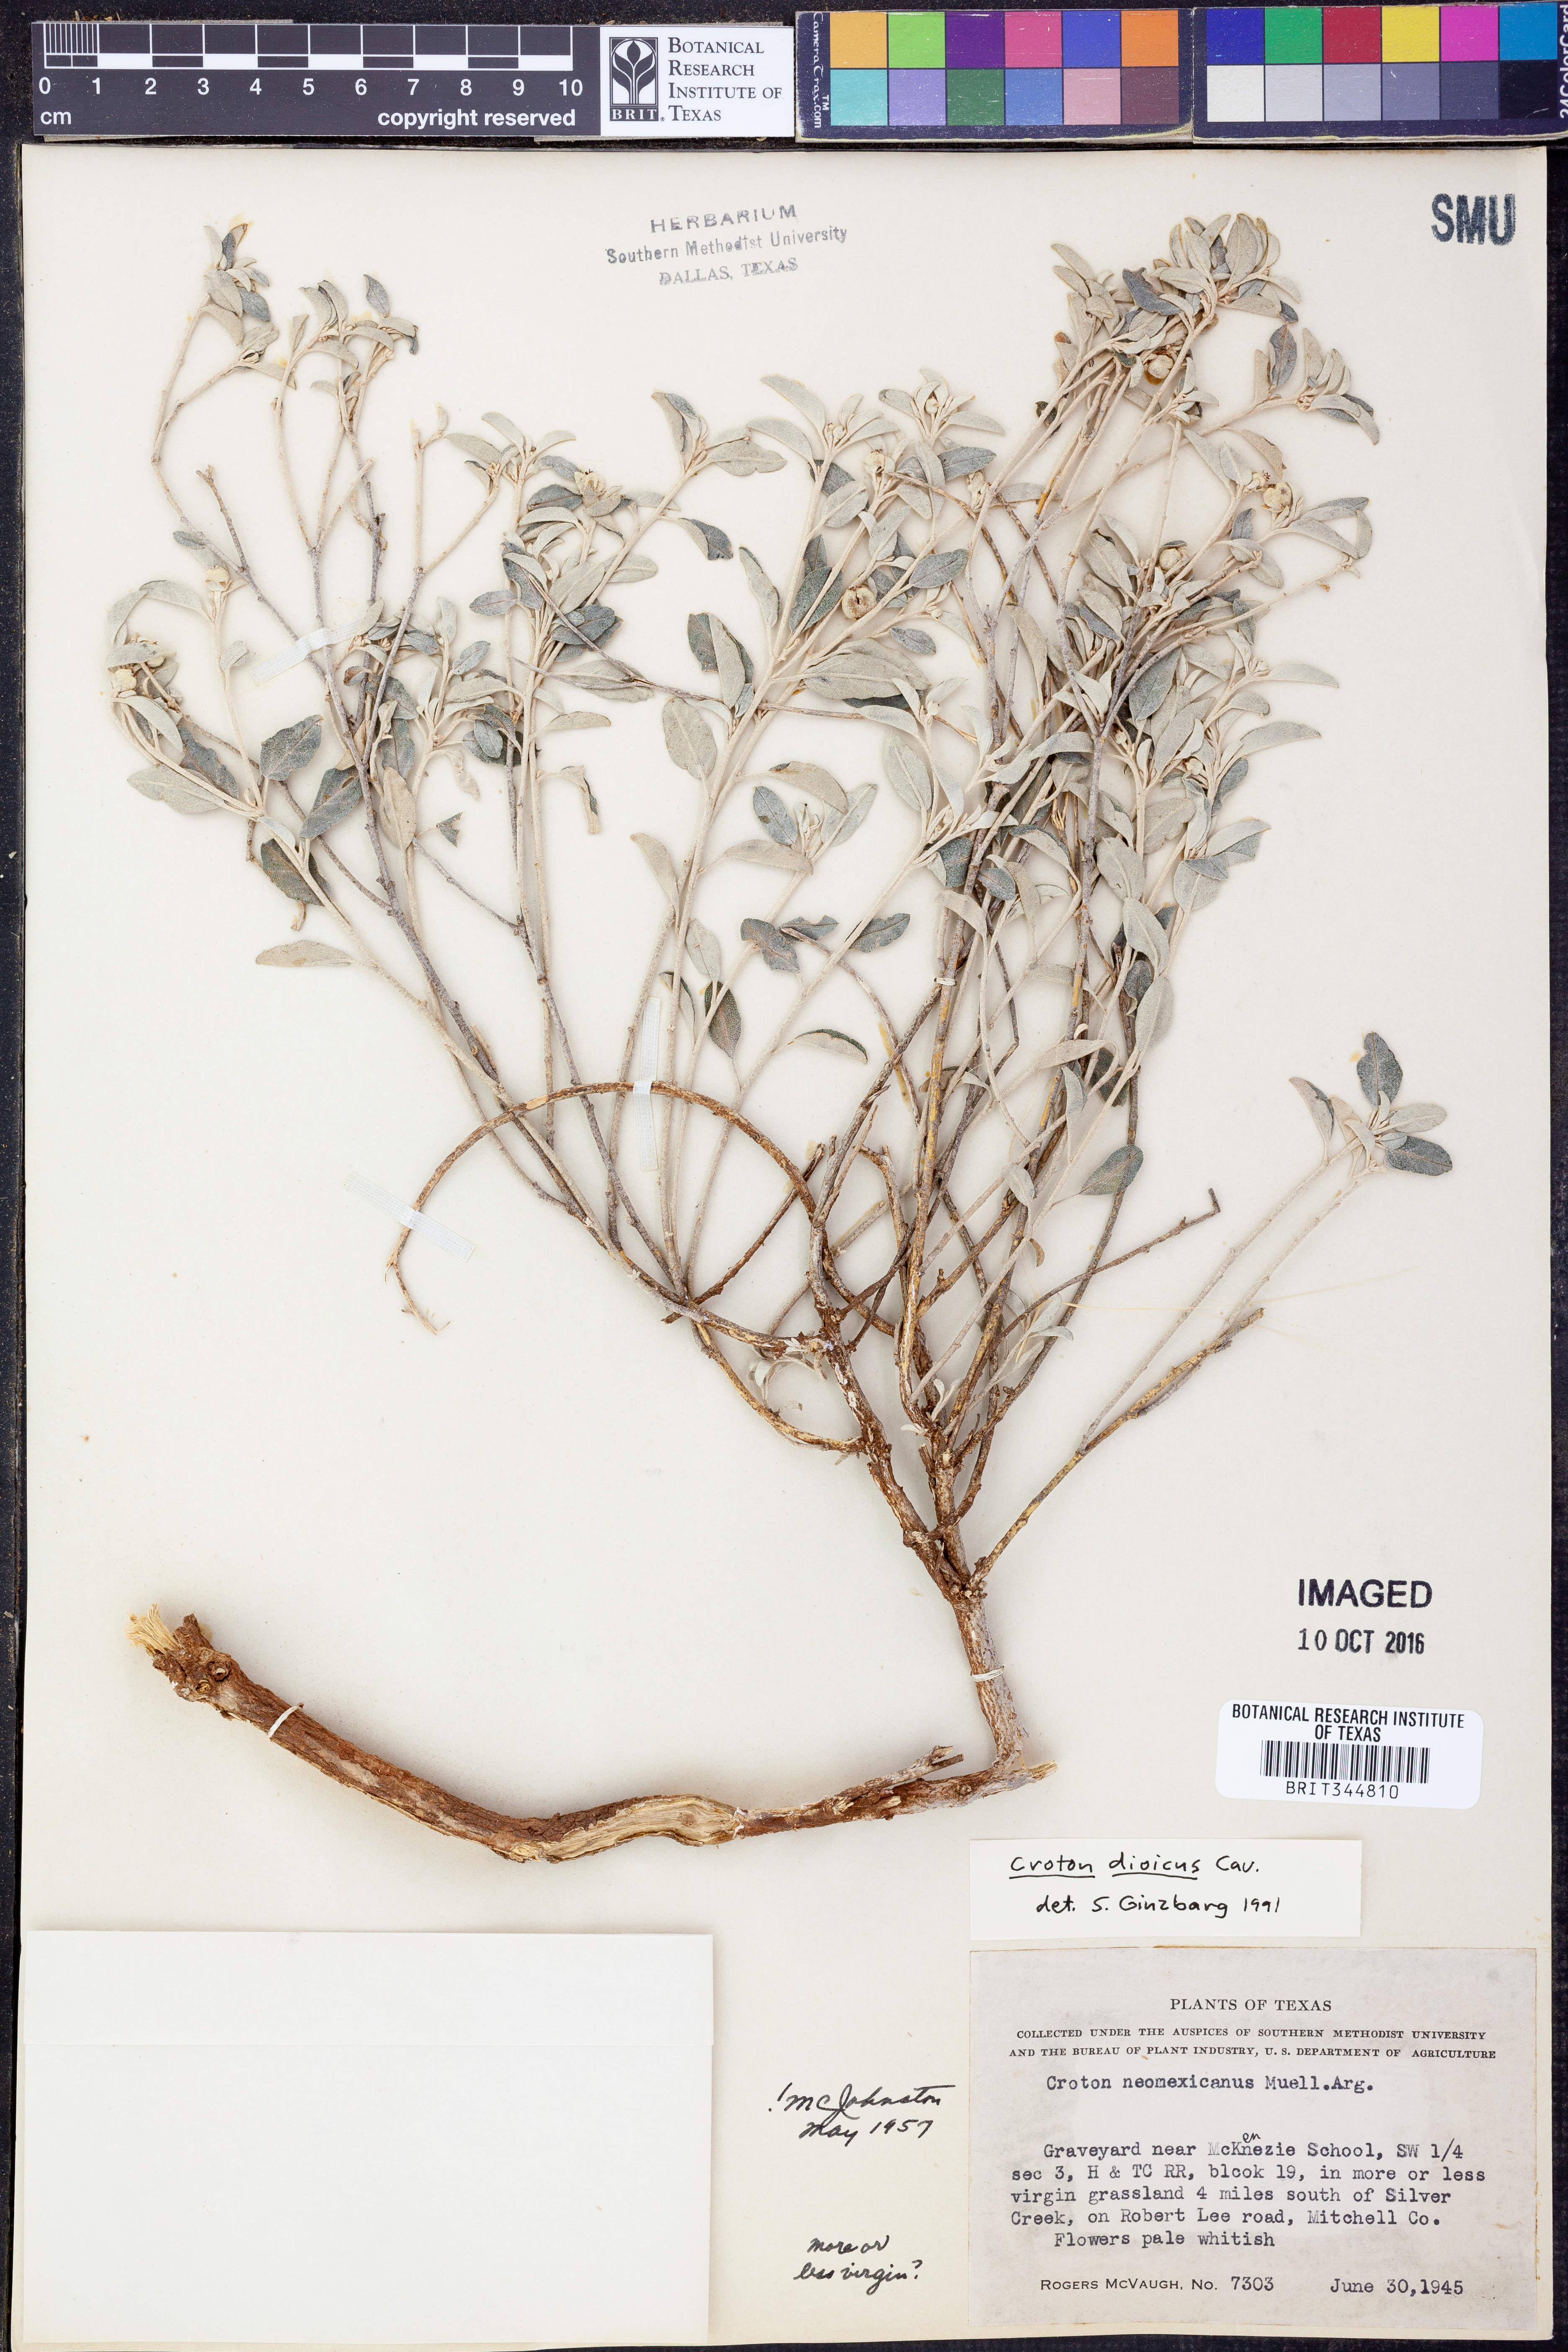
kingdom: Plantae
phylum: Tracheophyta
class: Magnoliopsida
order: Malpighiales
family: Euphorbiaceae
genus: Croton
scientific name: Croton dioicus
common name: Grassland croton
